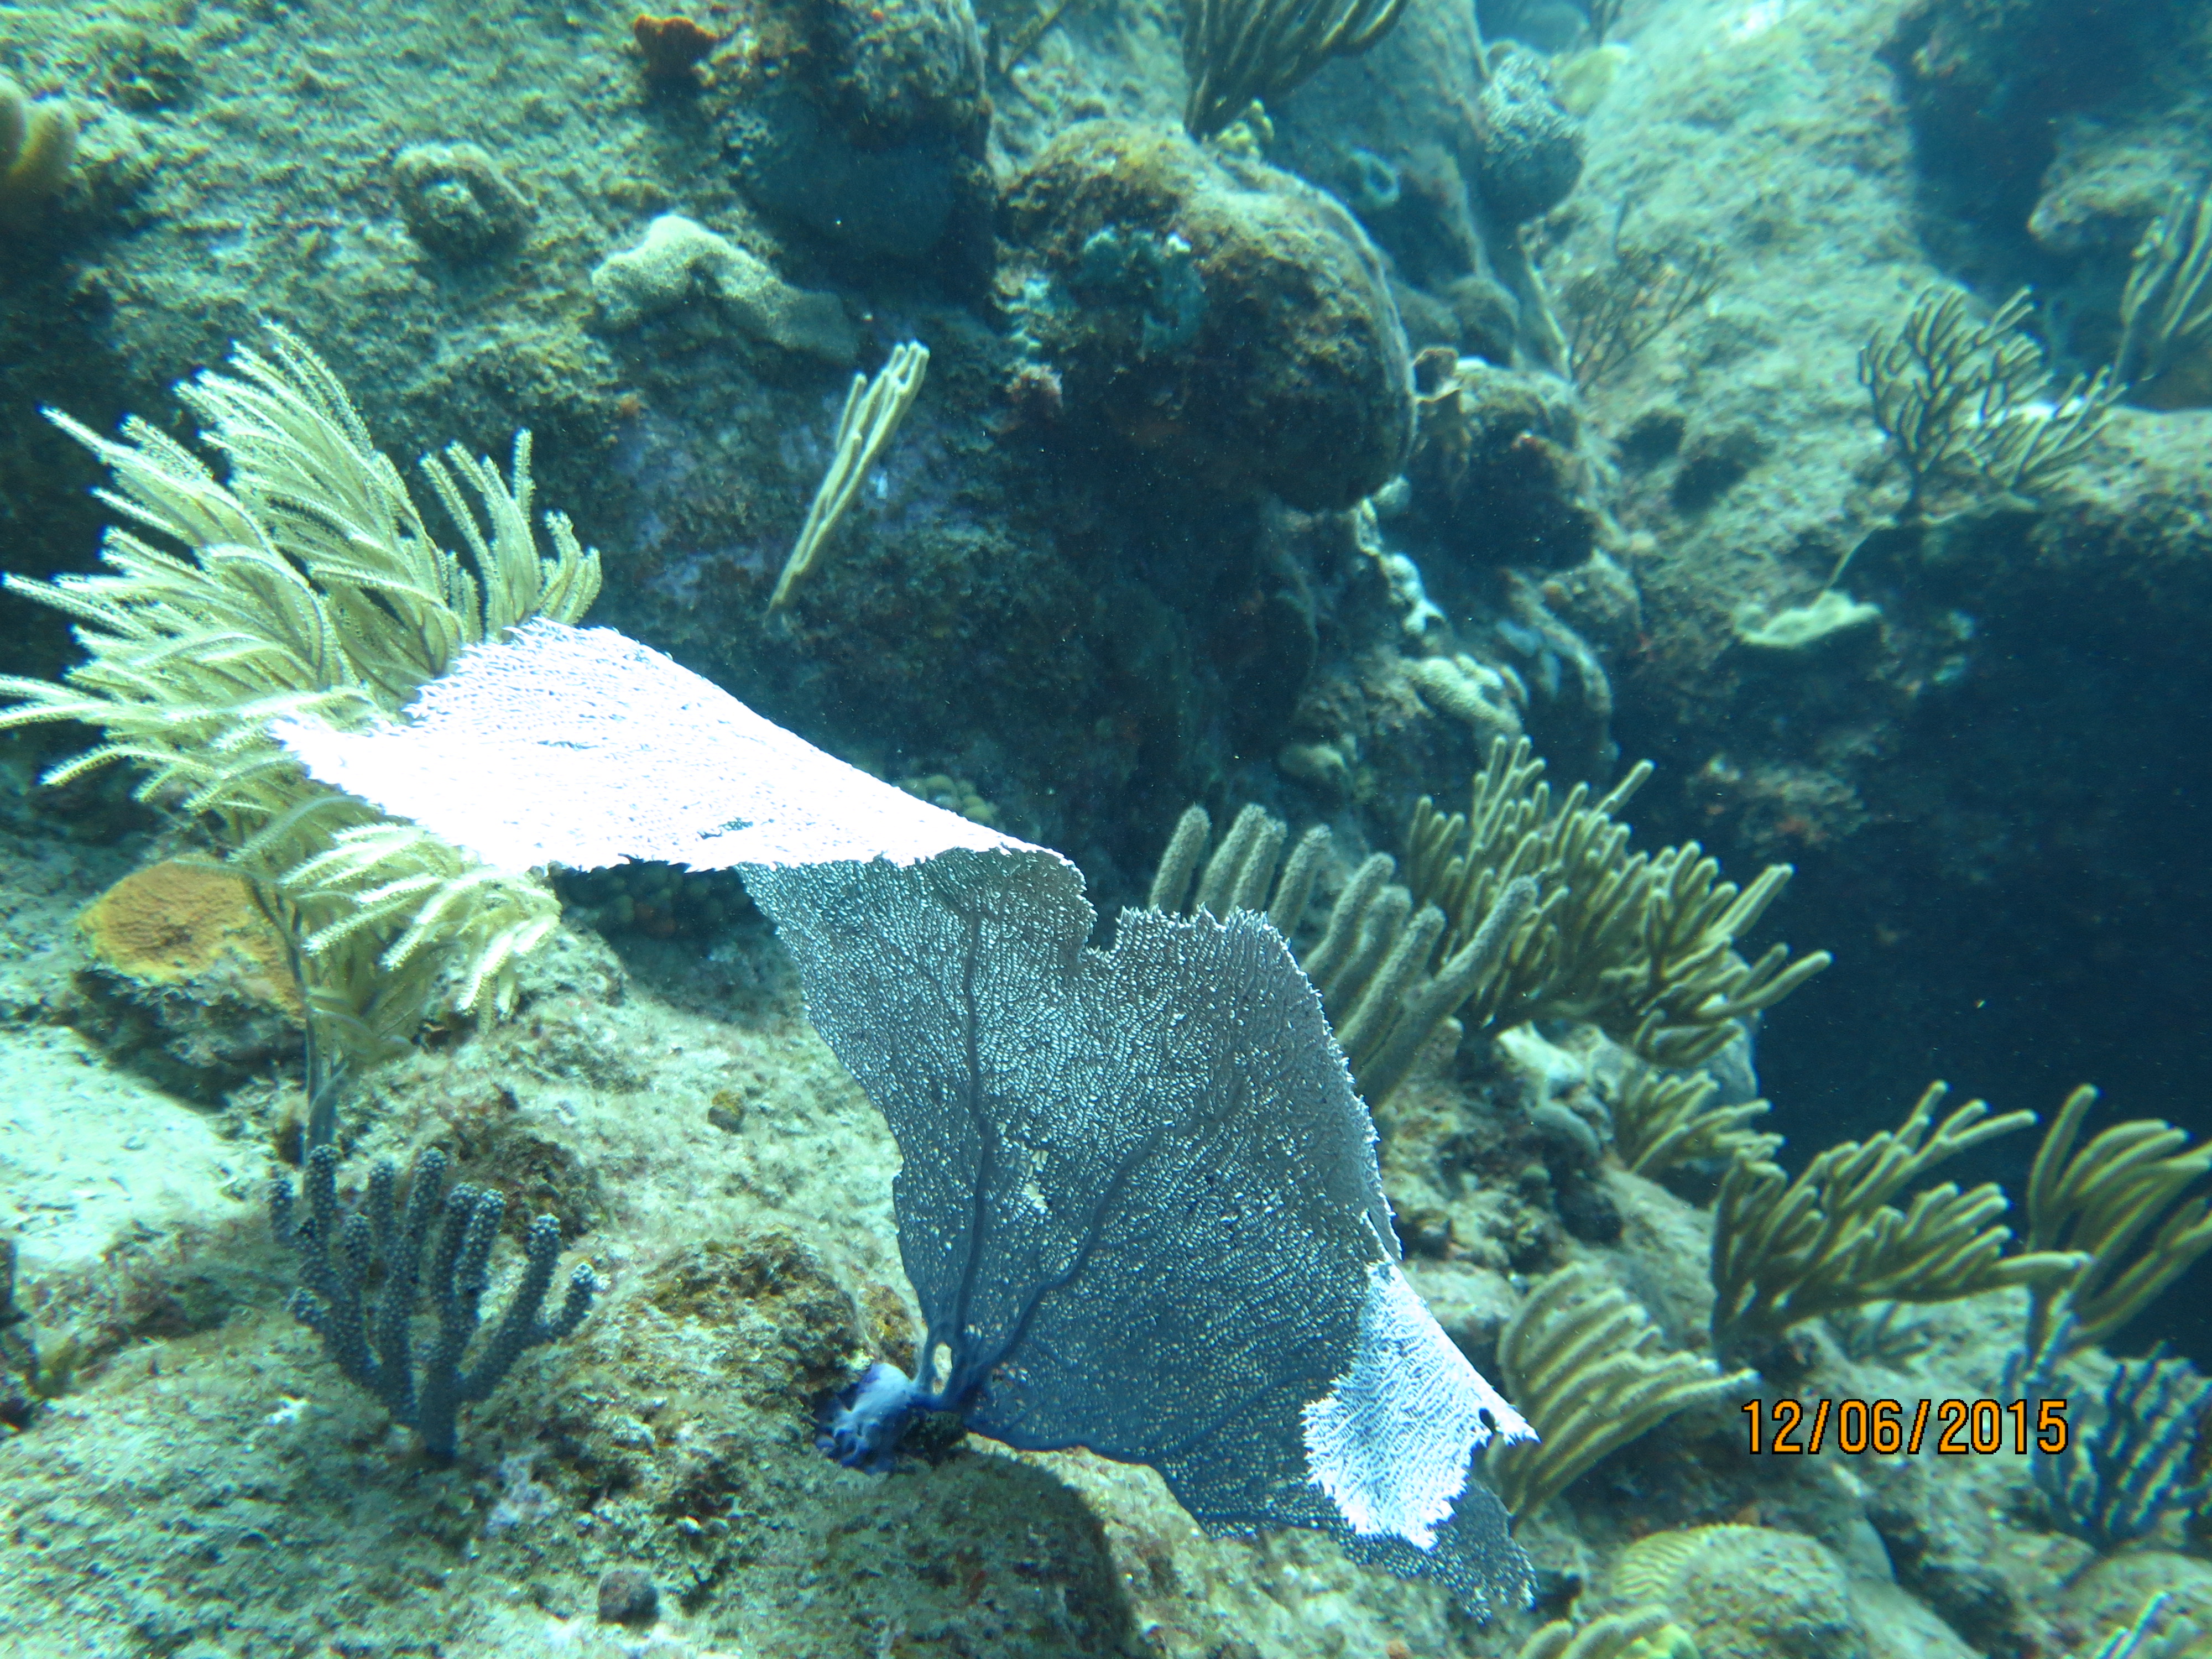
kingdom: Animalia
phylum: Cnidaria
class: Anthozoa
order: Malacalcyonacea
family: Gorgoniidae
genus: Gorgonia
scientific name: Gorgonia ventalina
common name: Common sea fan
